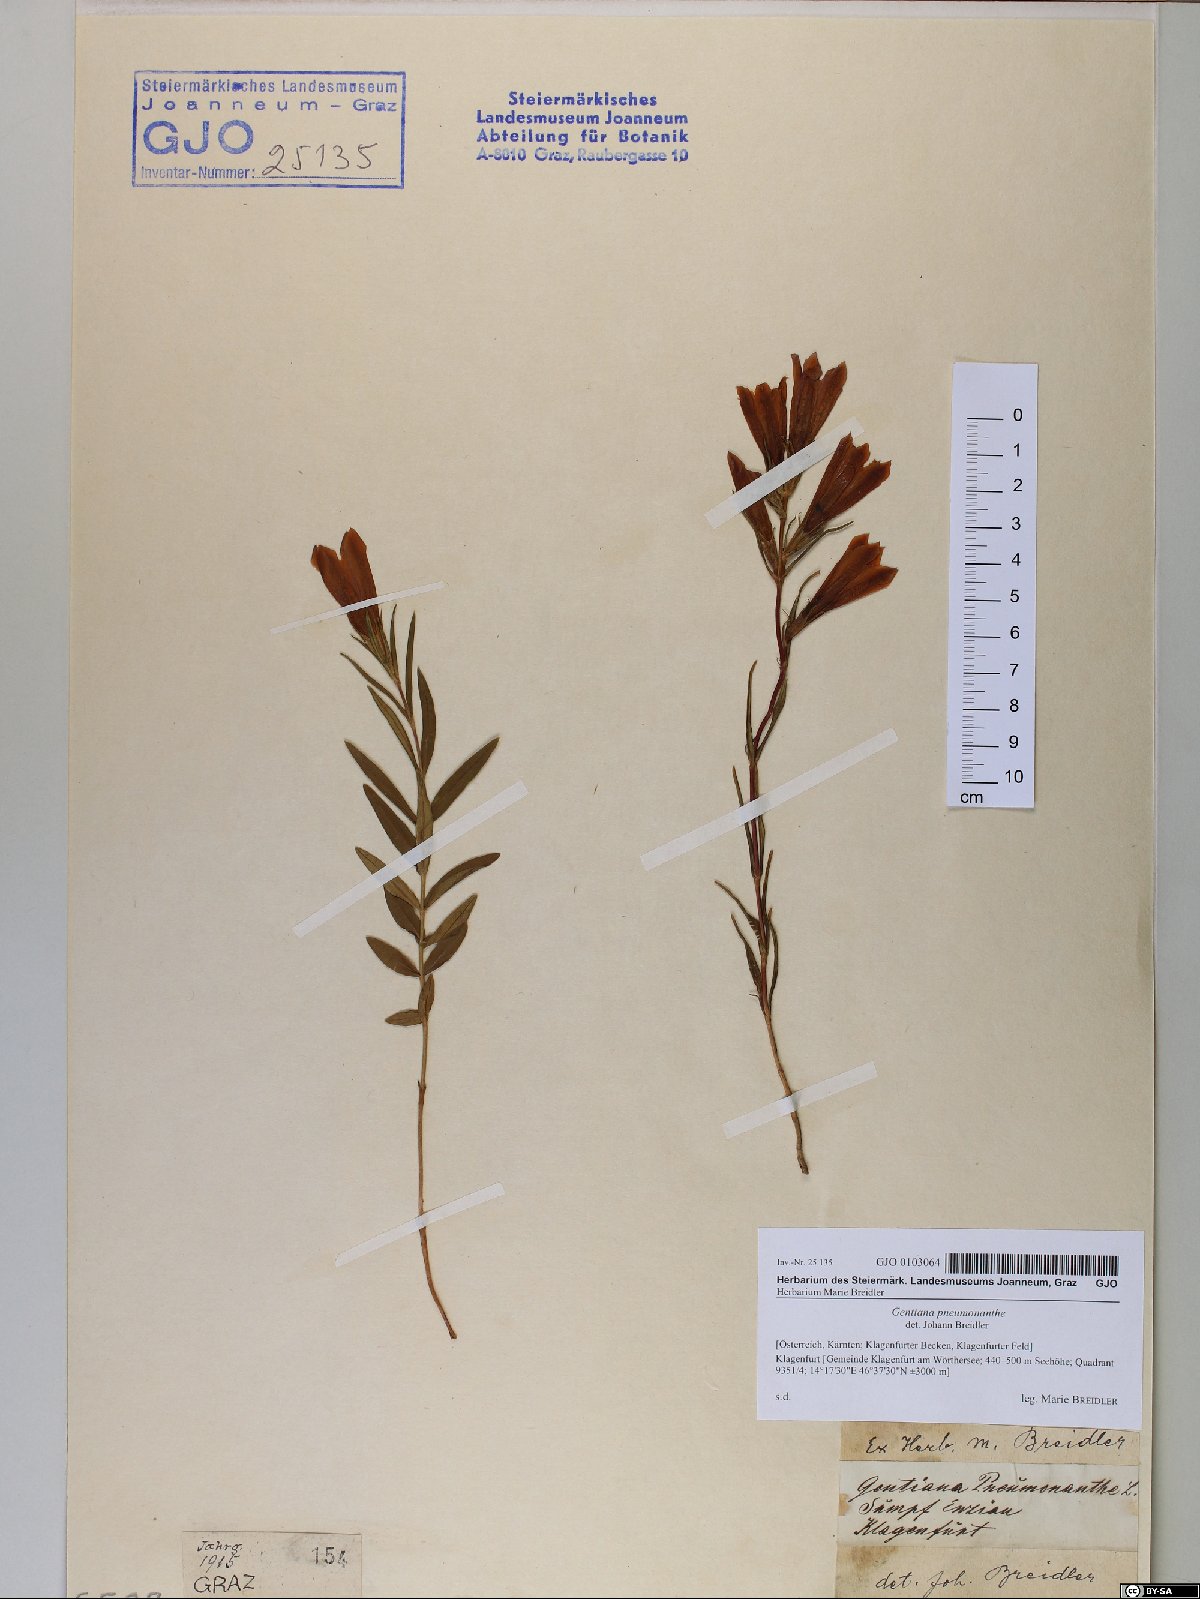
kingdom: Plantae
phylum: Tracheophyta
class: Magnoliopsida
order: Gentianales
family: Gentianaceae
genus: Gentiana
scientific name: Gentiana pneumonanthe
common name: Marsh gentian
